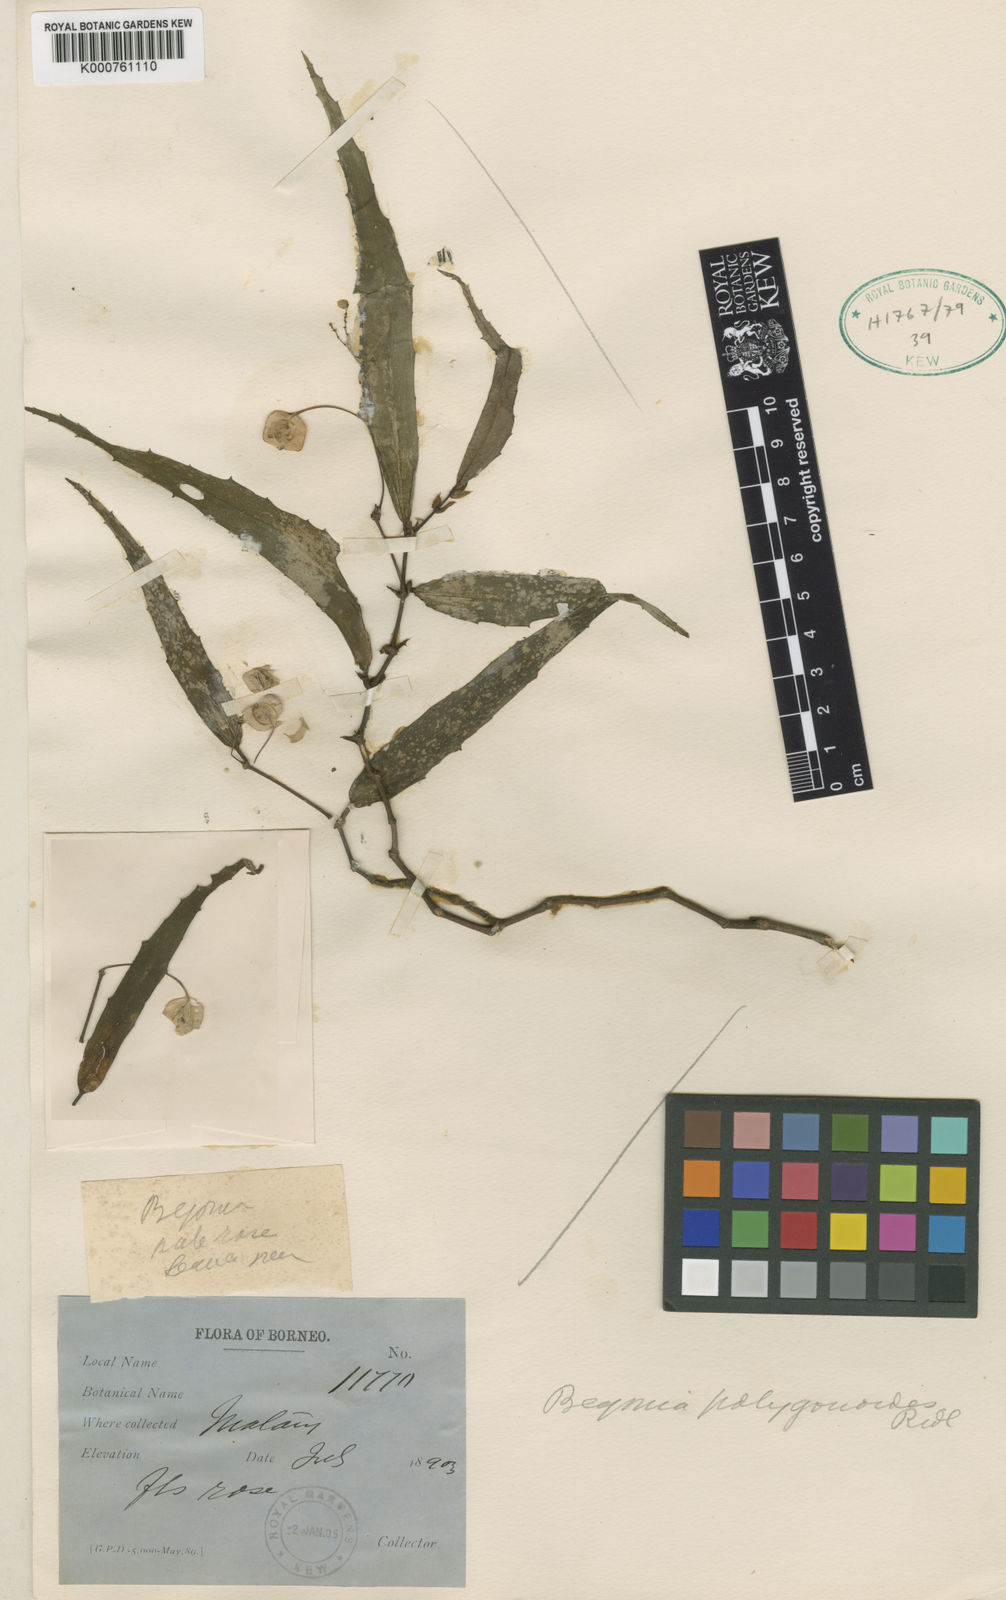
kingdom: Plantae
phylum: Tracheophyta
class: Magnoliopsida
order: Cucurbitales
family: Begoniaceae
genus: Begonia
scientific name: Begonia xiphophylla
